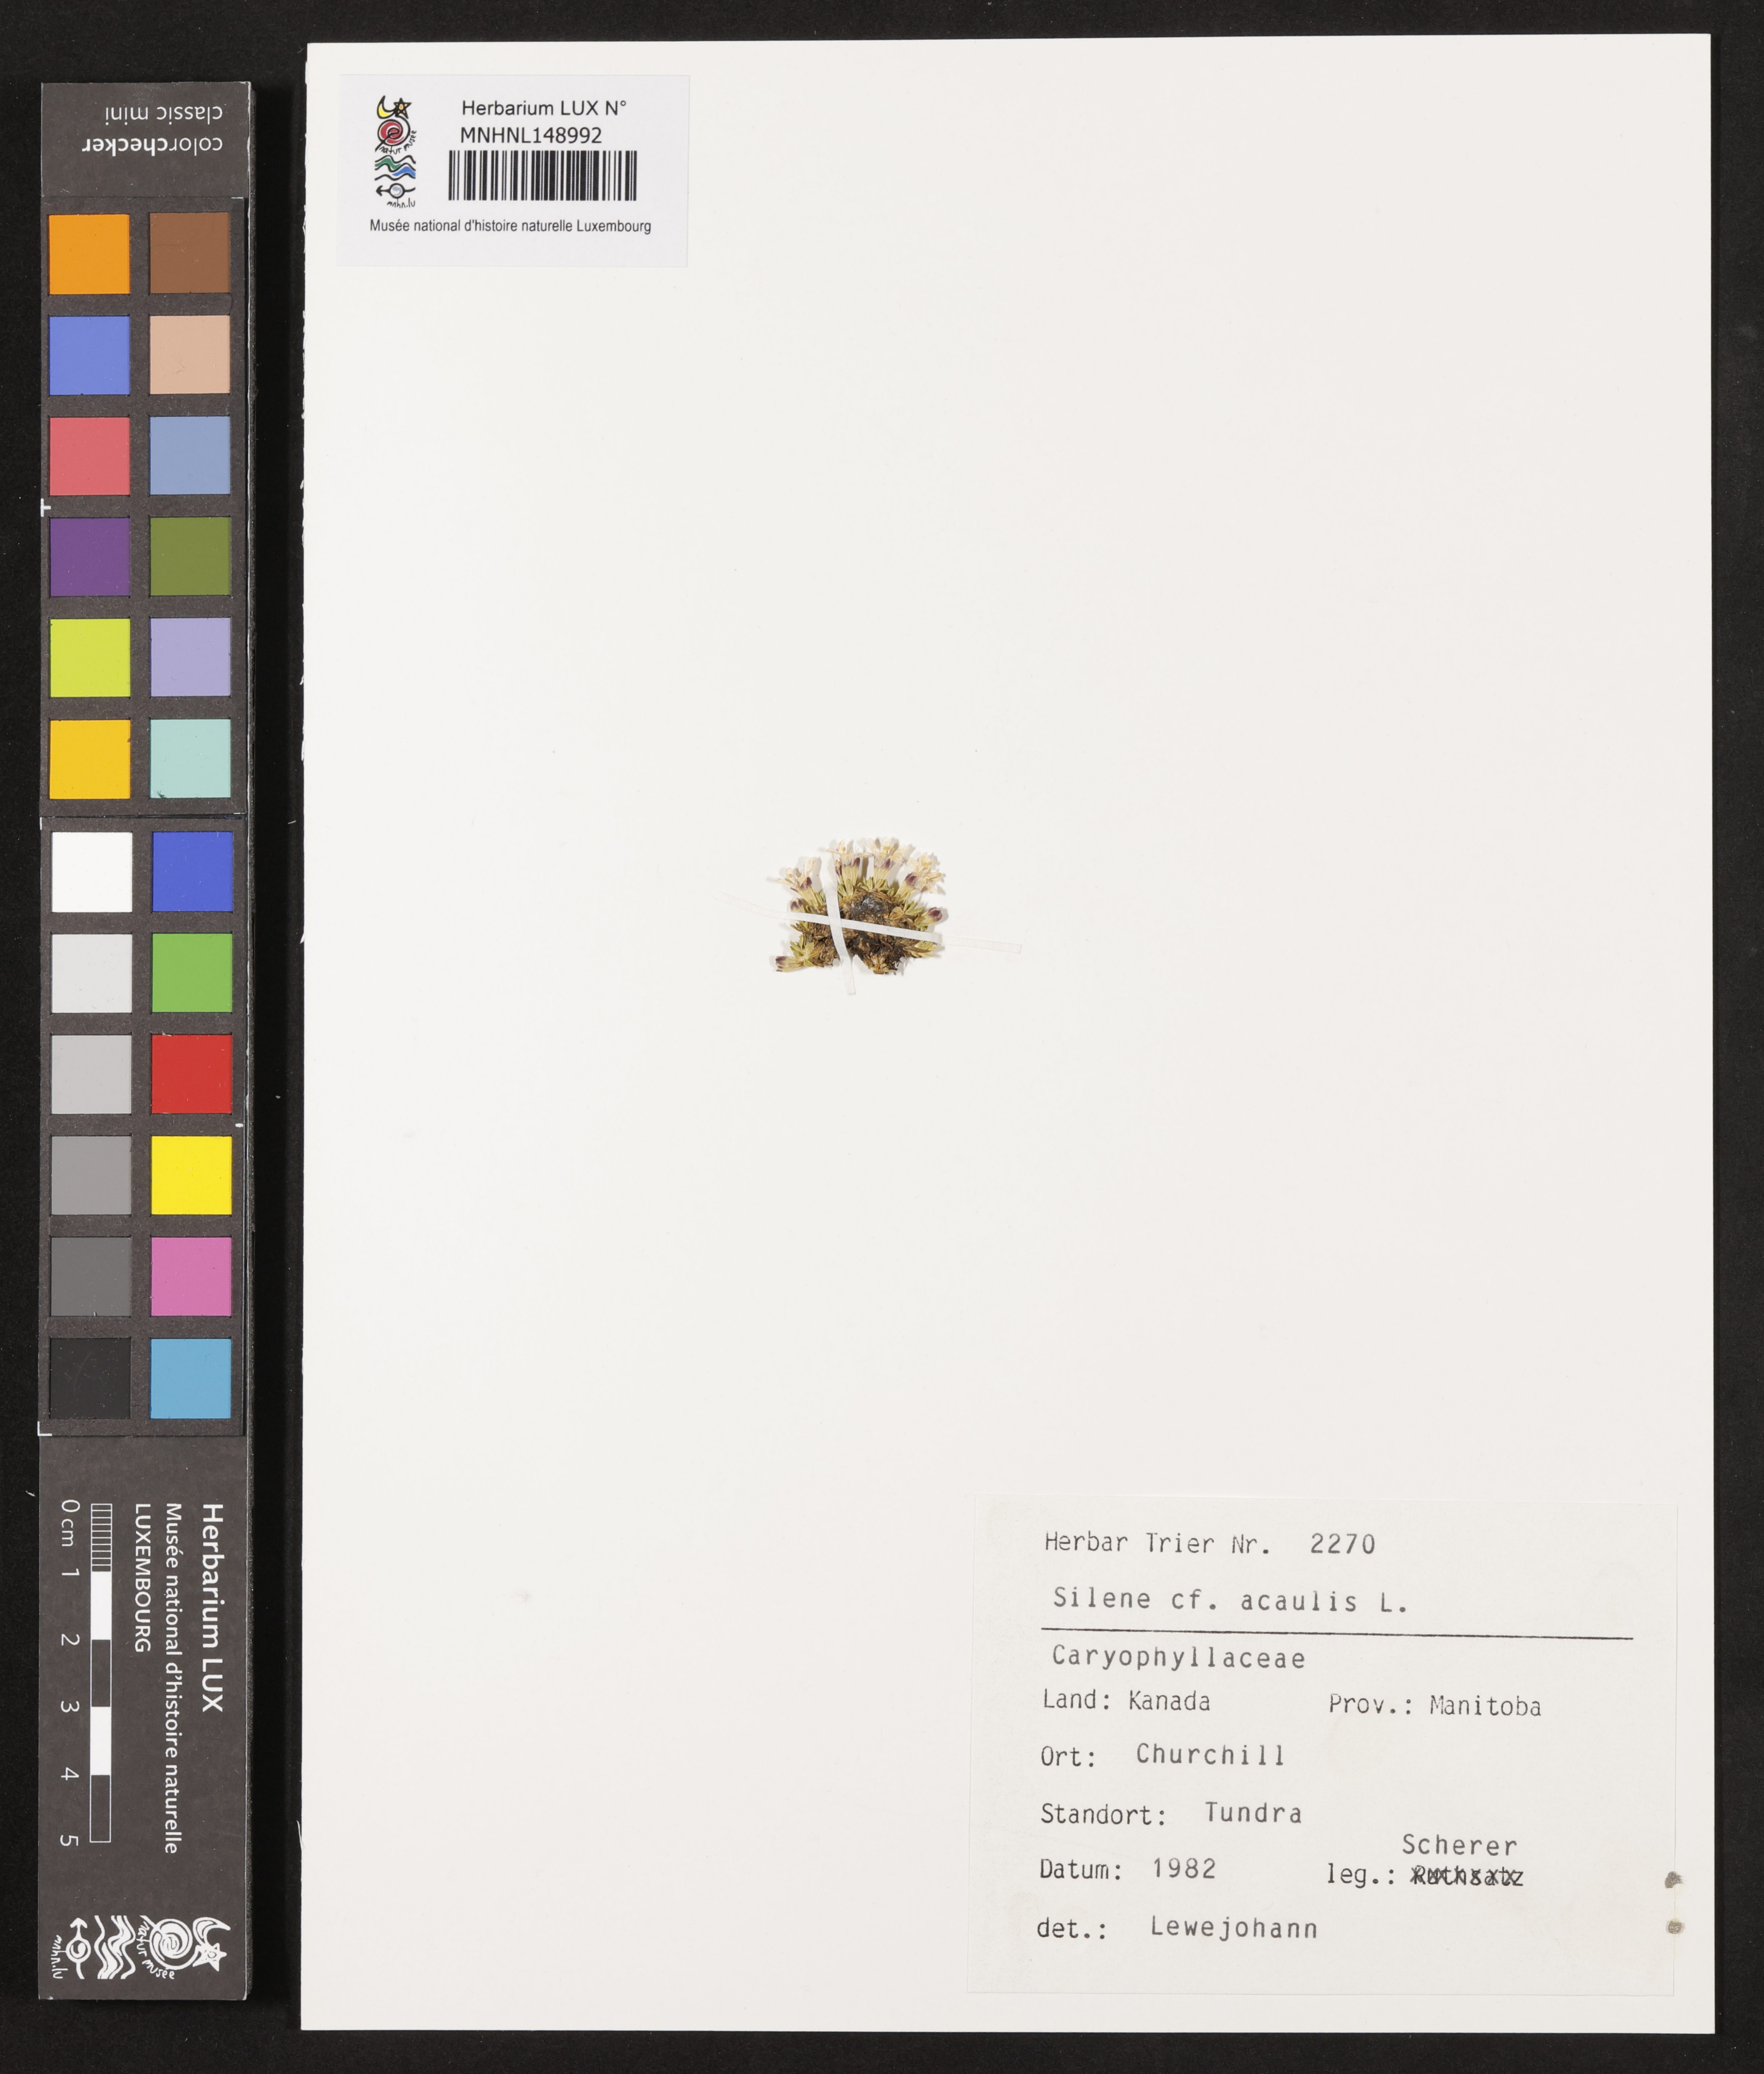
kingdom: Plantae
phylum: Tracheophyta
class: Magnoliopsida
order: Caryophyllales
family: Caryophyllaceae
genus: Silene
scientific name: Silene acaulis
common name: Moss campion
